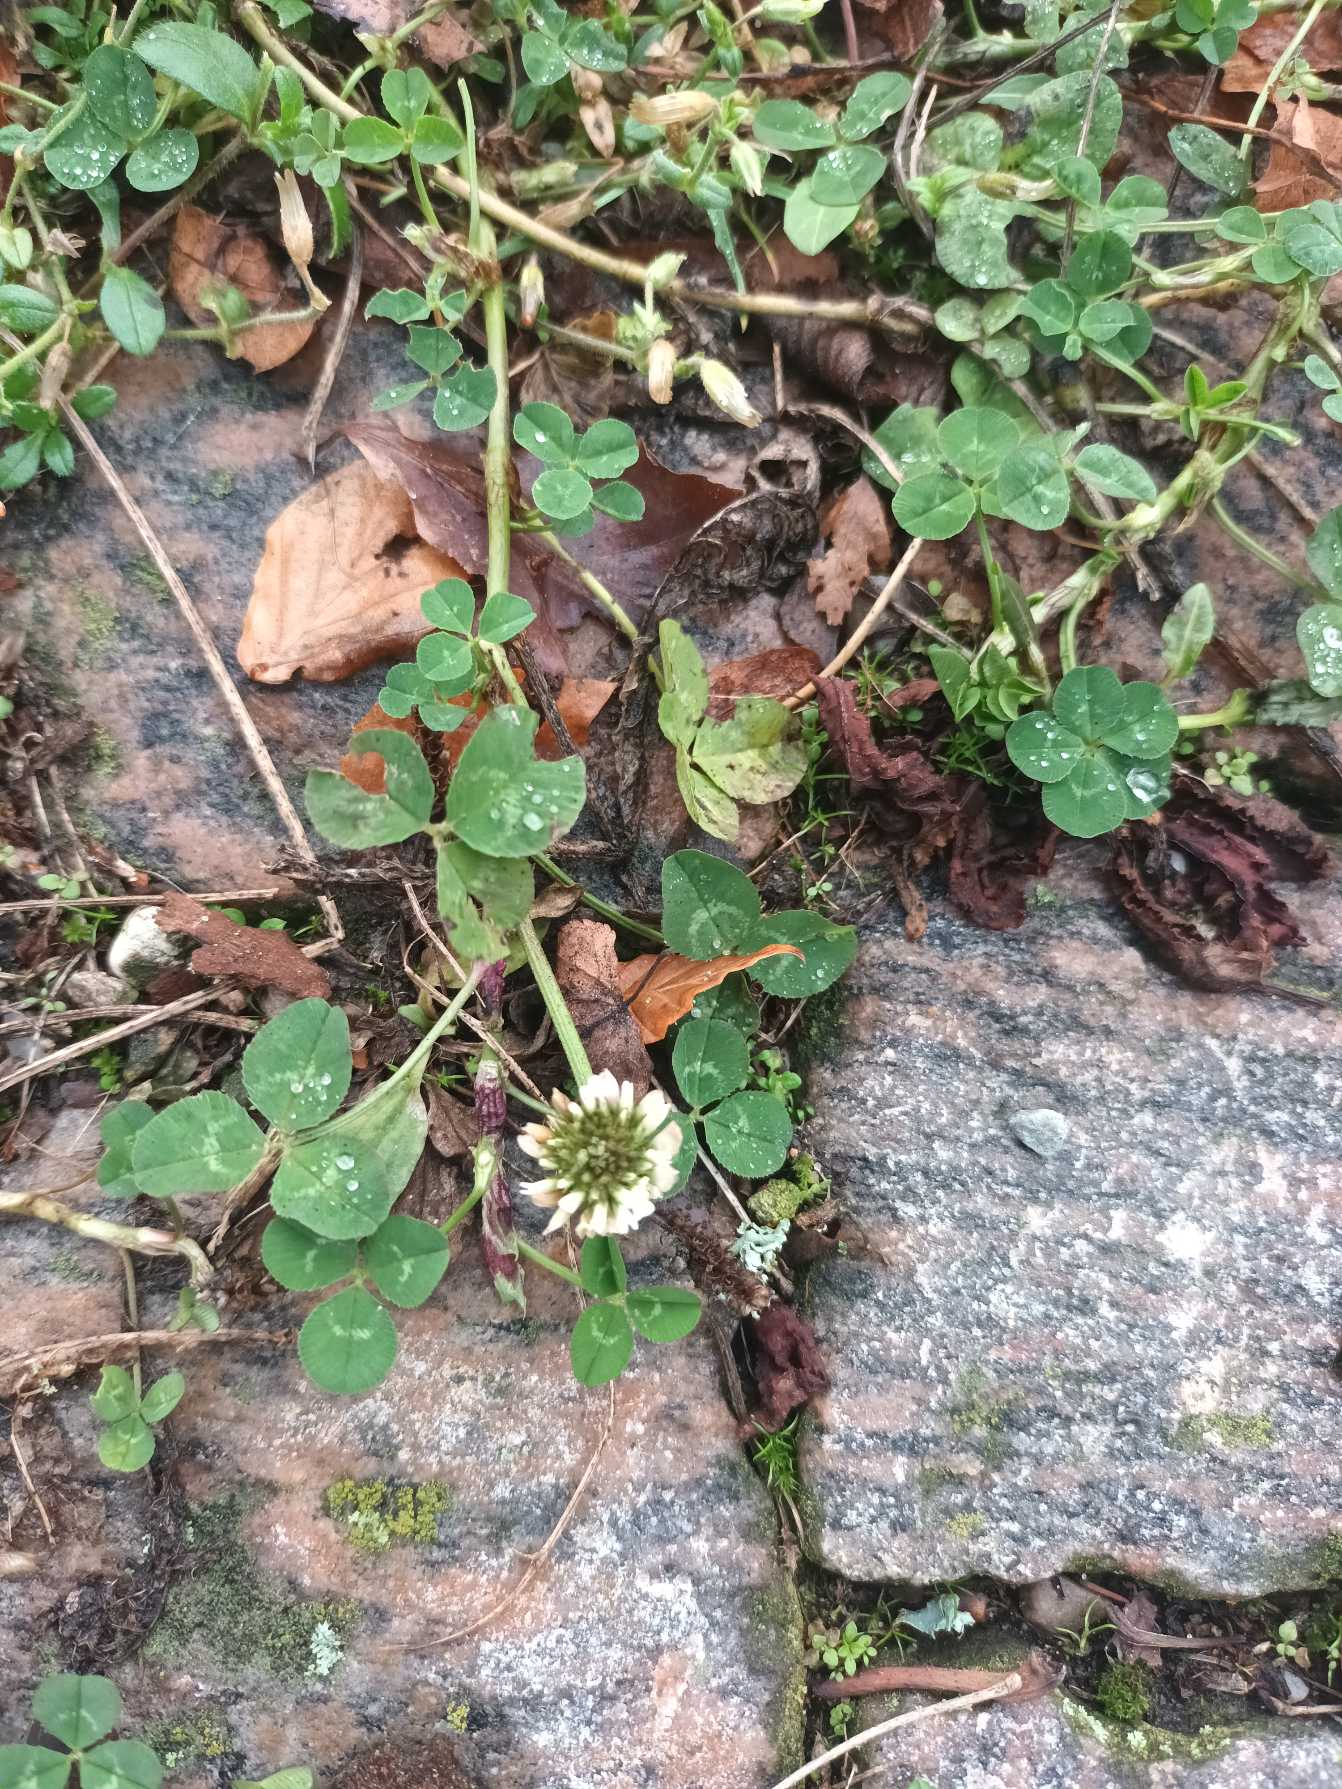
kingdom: Plantae
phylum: Tracheophyta
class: Magnoliopsida
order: Fabales
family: Fabaceae
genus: Trifolium
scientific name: Trifolium repens
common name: Hvid-kløver
